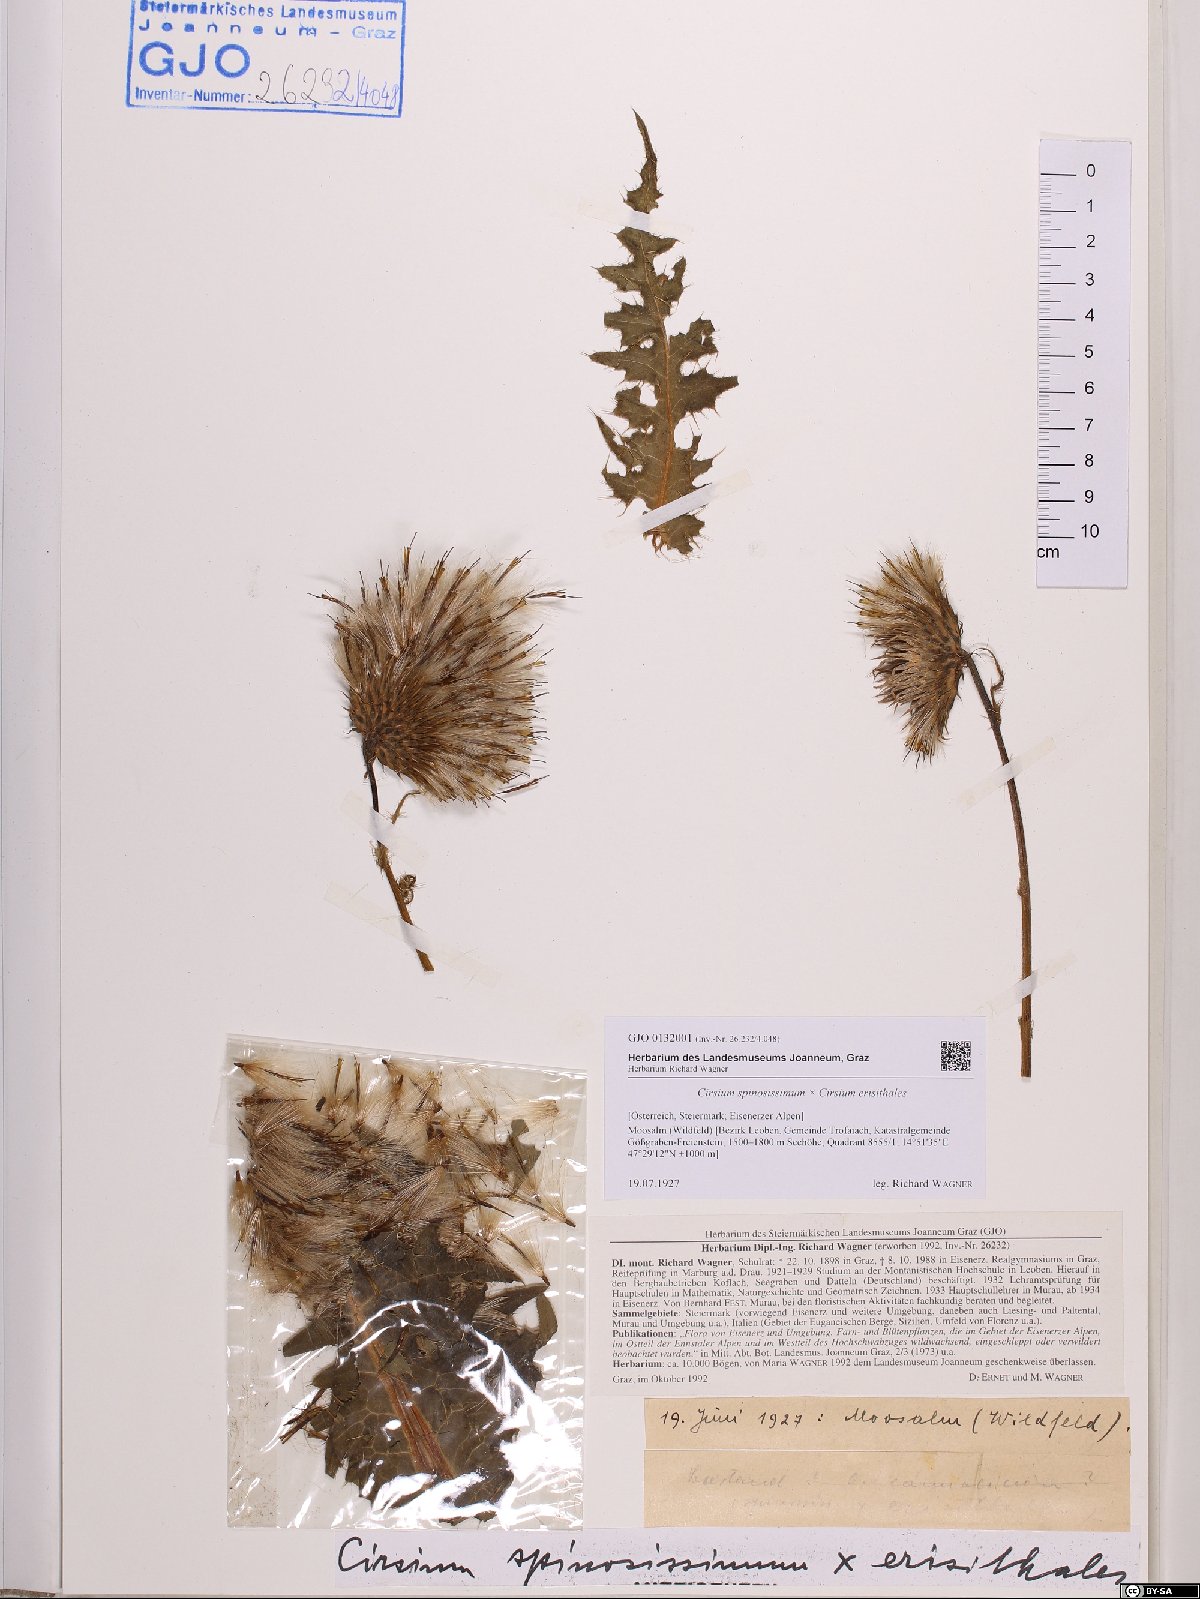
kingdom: Plantae
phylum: Tracheophyta
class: Magnoliopsida
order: Asterales
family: Asteraceae
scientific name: Asteraceae
